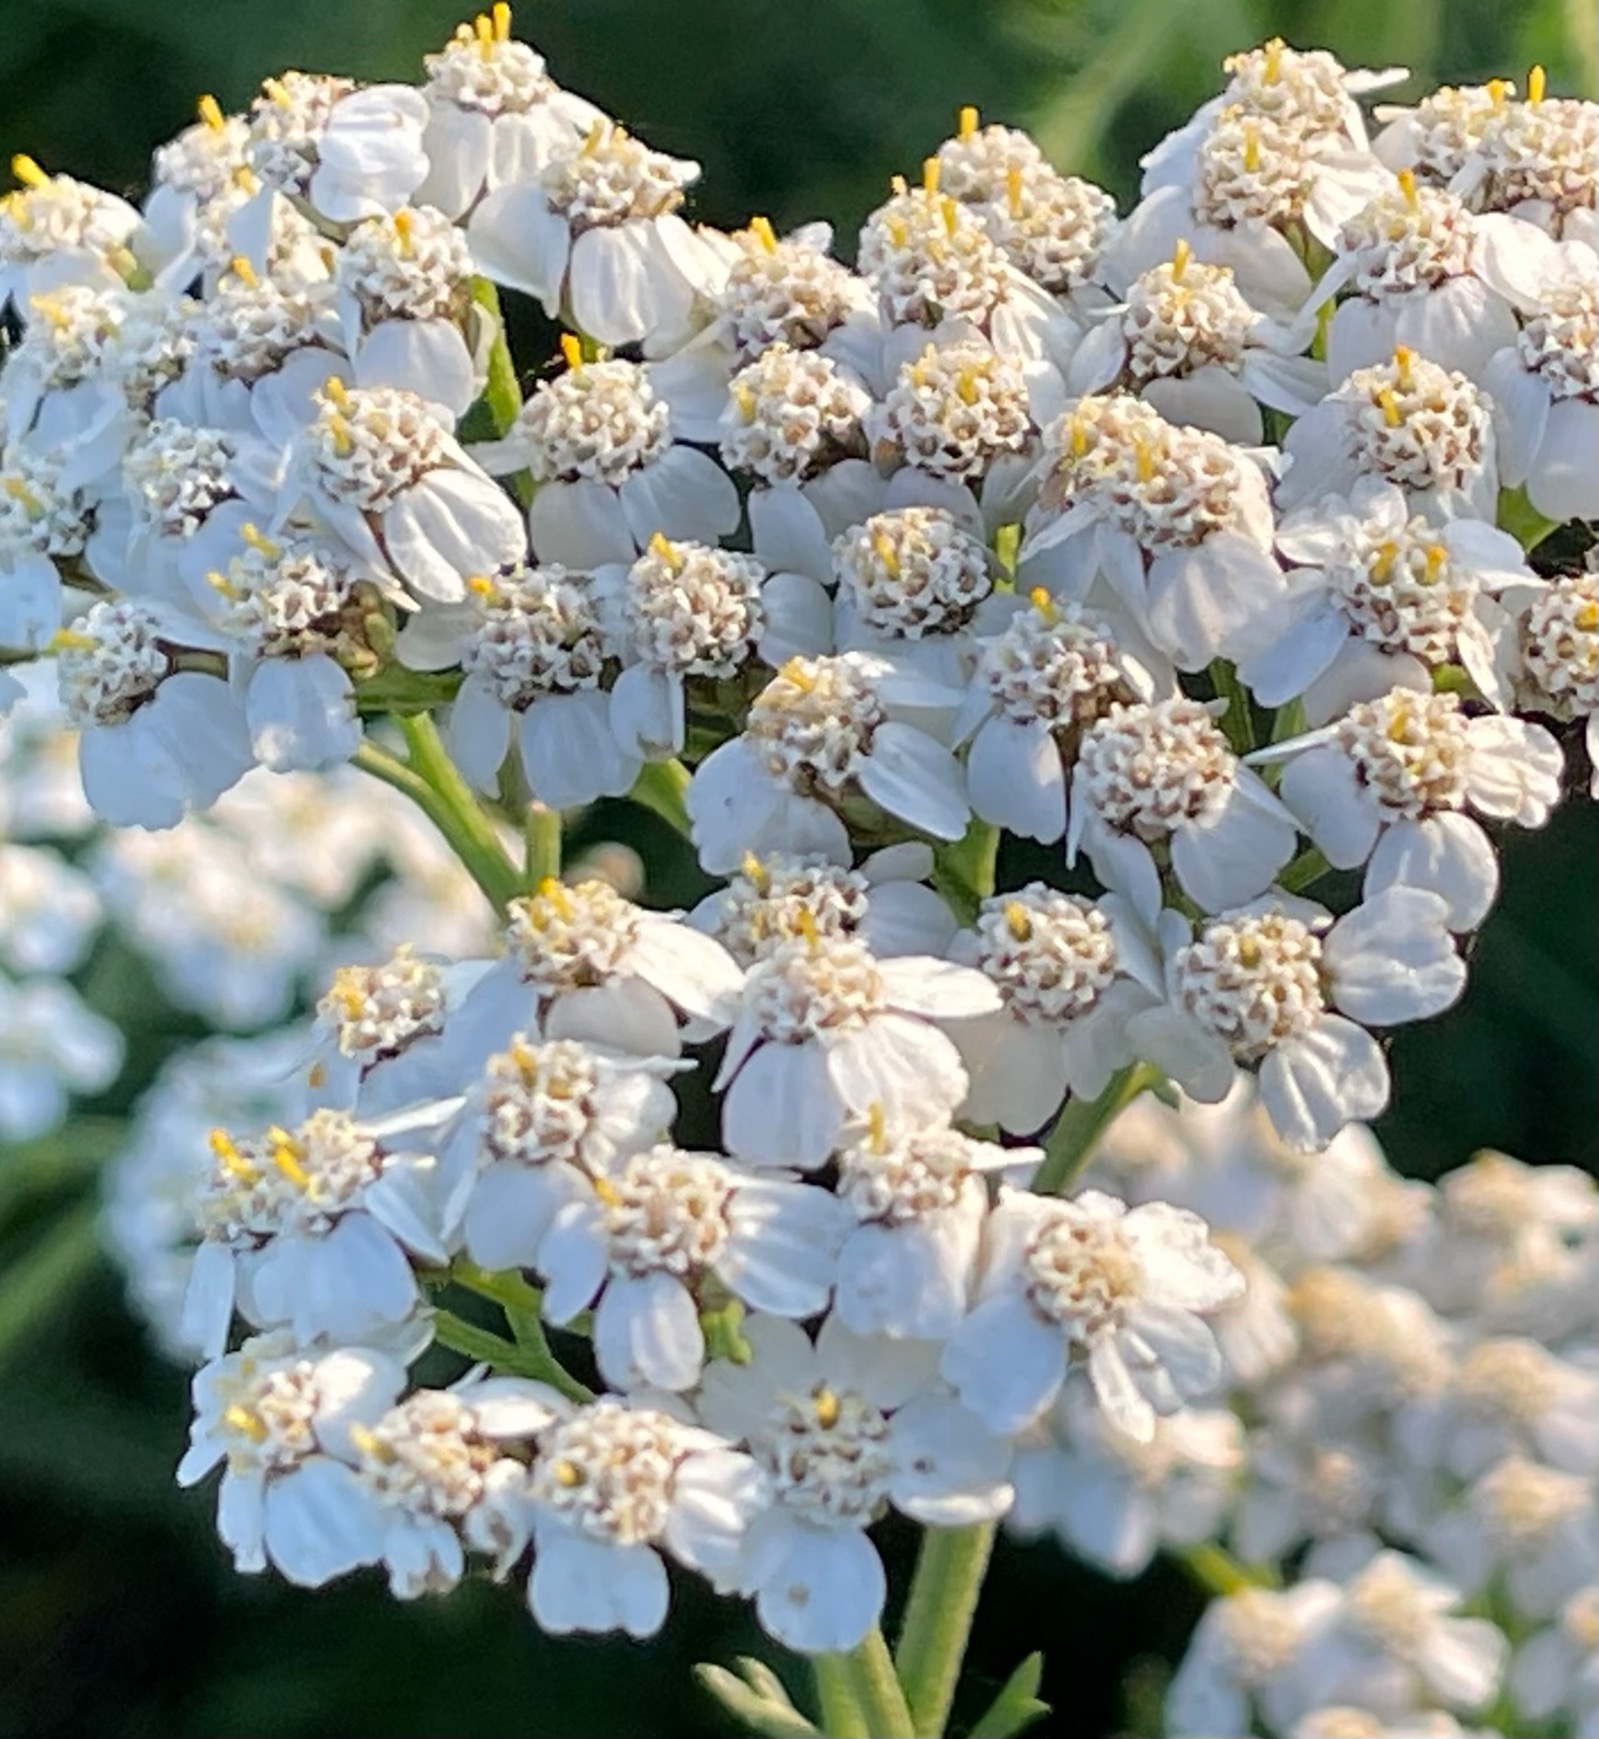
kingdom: Plantae
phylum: Tracheophyta
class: Magnoliopsida
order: Asterales
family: Asteraceae
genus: Achillea
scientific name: Achillea millefolium
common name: Almindelig røllike
